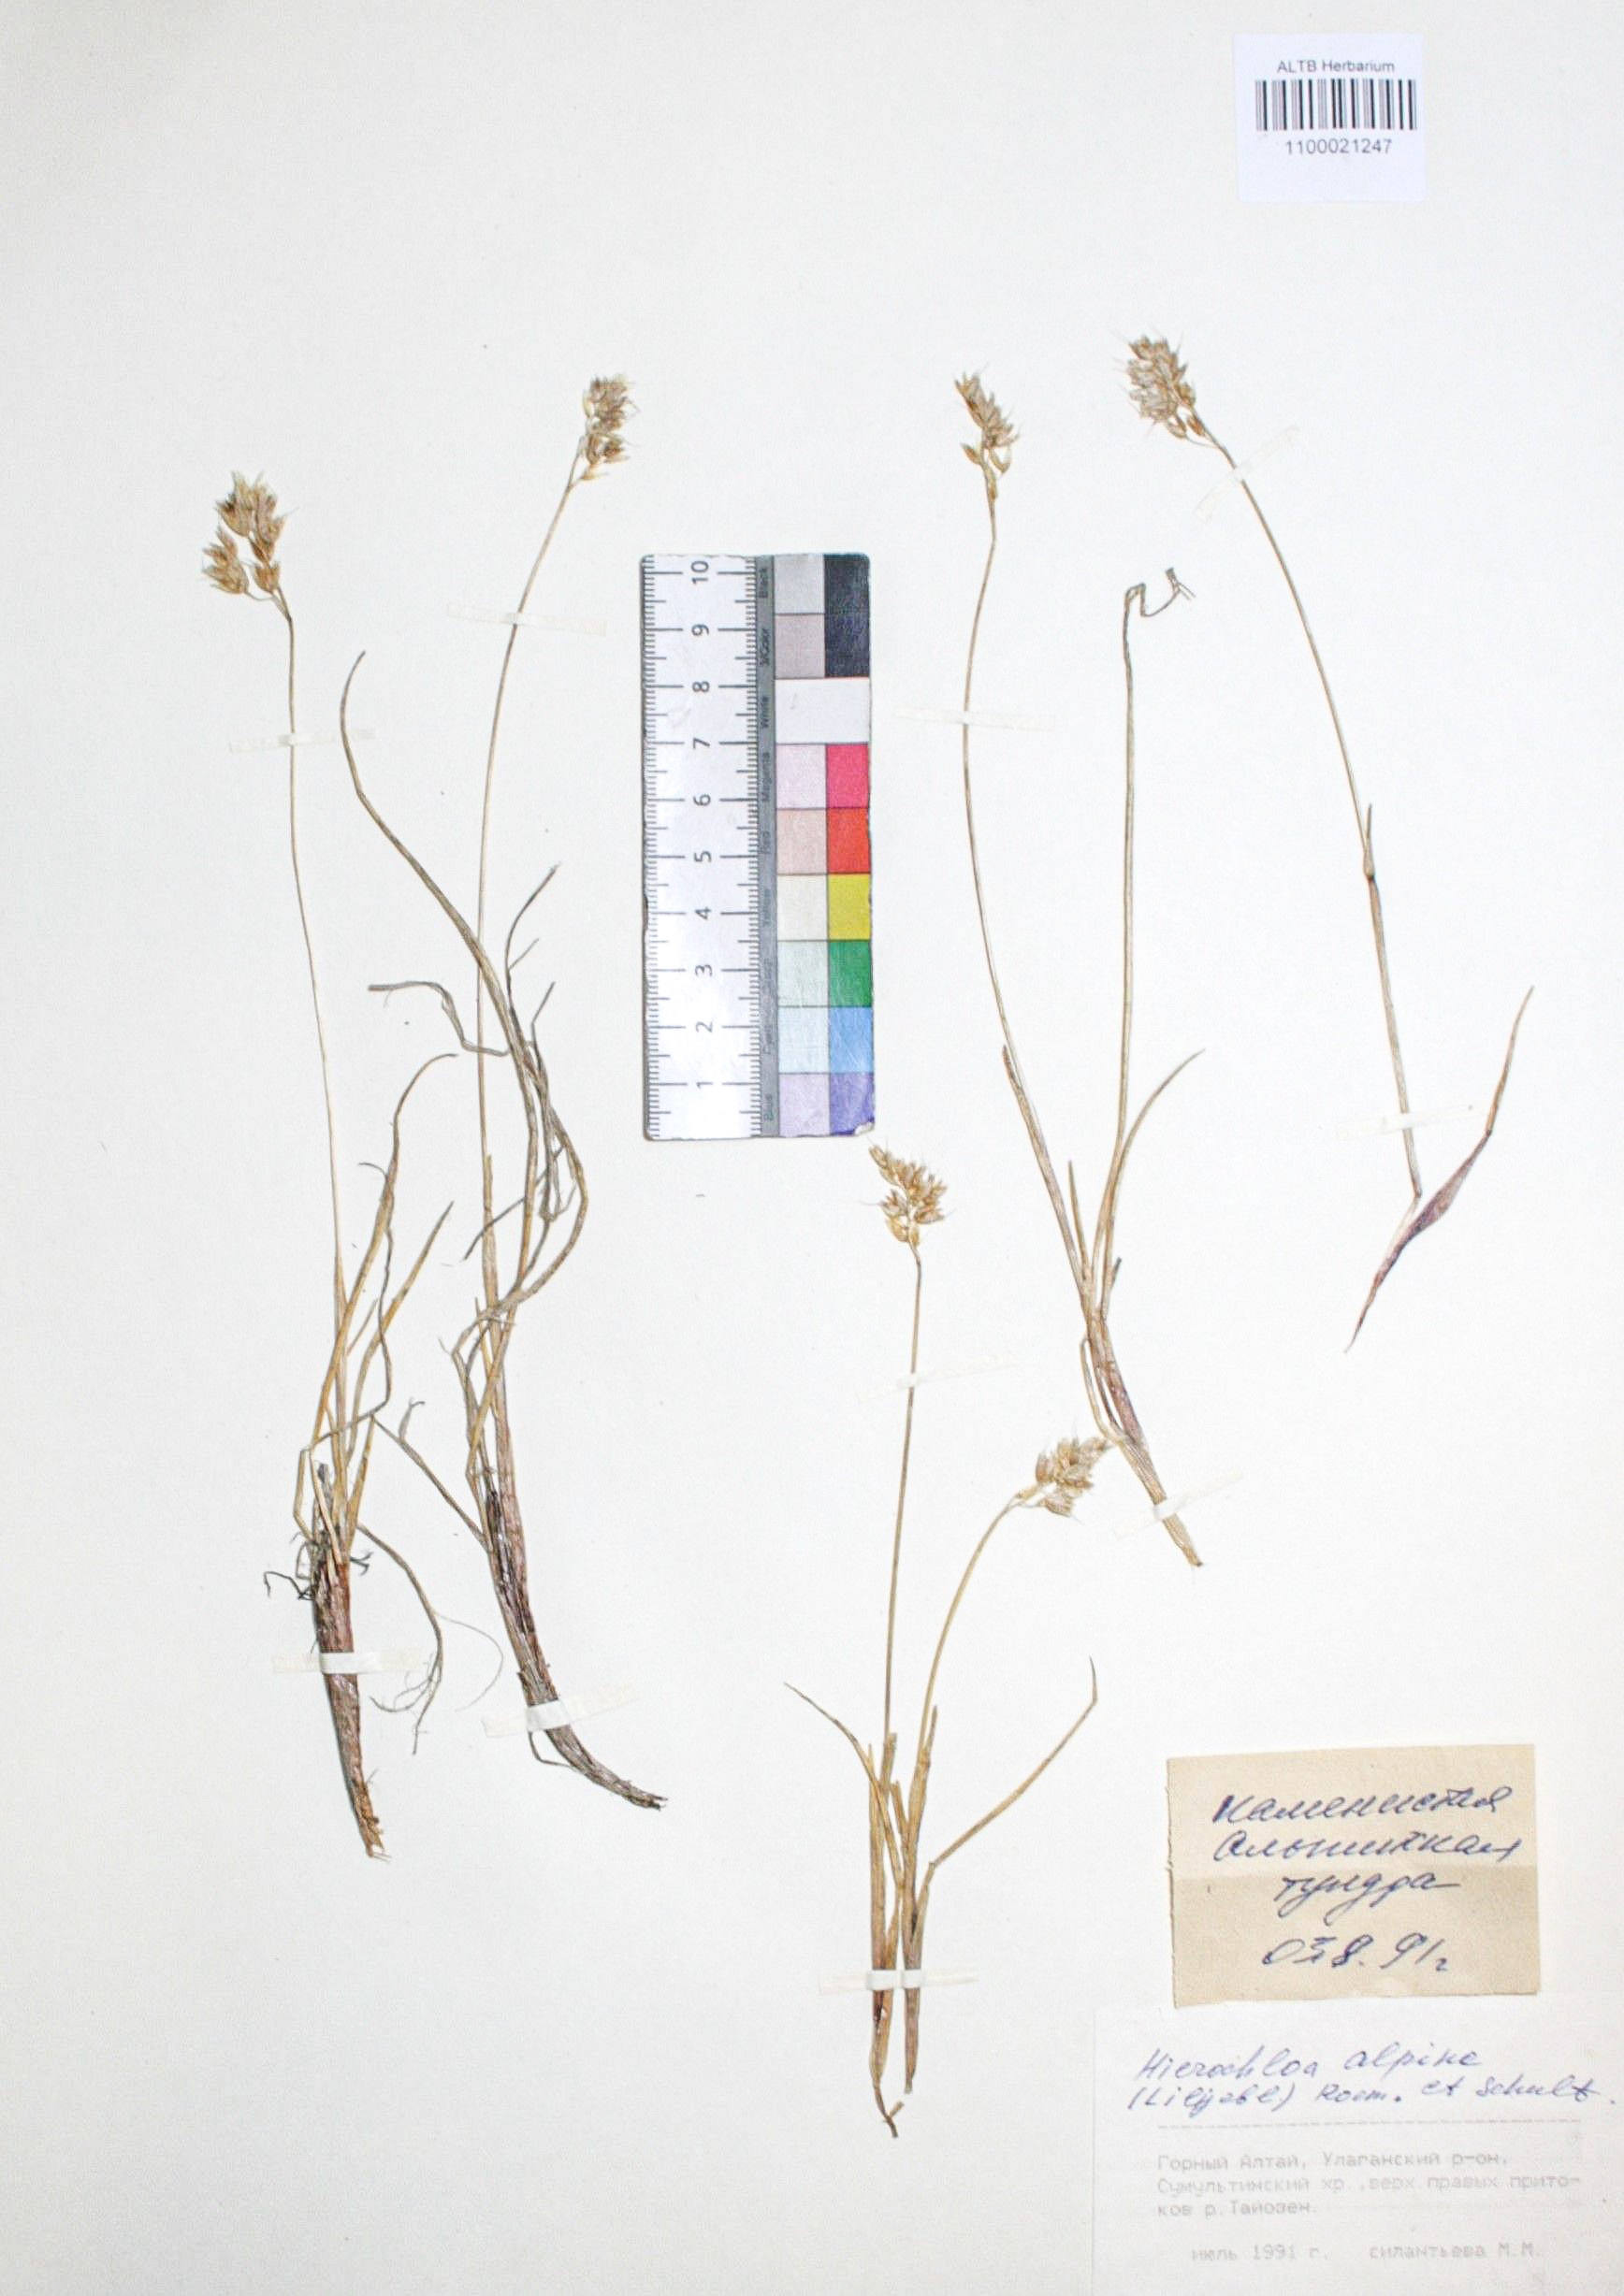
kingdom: Plantae
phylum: Tracheophyta
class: Liliopsida
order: Poales
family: Poaceae
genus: Anthoxanthum
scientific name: Anthoxanthum monticola
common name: Alpine sweetgrass
